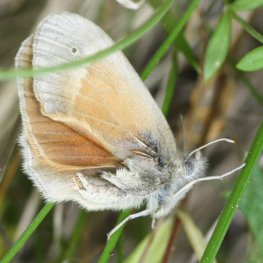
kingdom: Animalia
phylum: Arthropoda
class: Insecta
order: Lepidoptera
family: Nymphalidae
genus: Coenonympha
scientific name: Coenonympha tullia
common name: Large Heath
